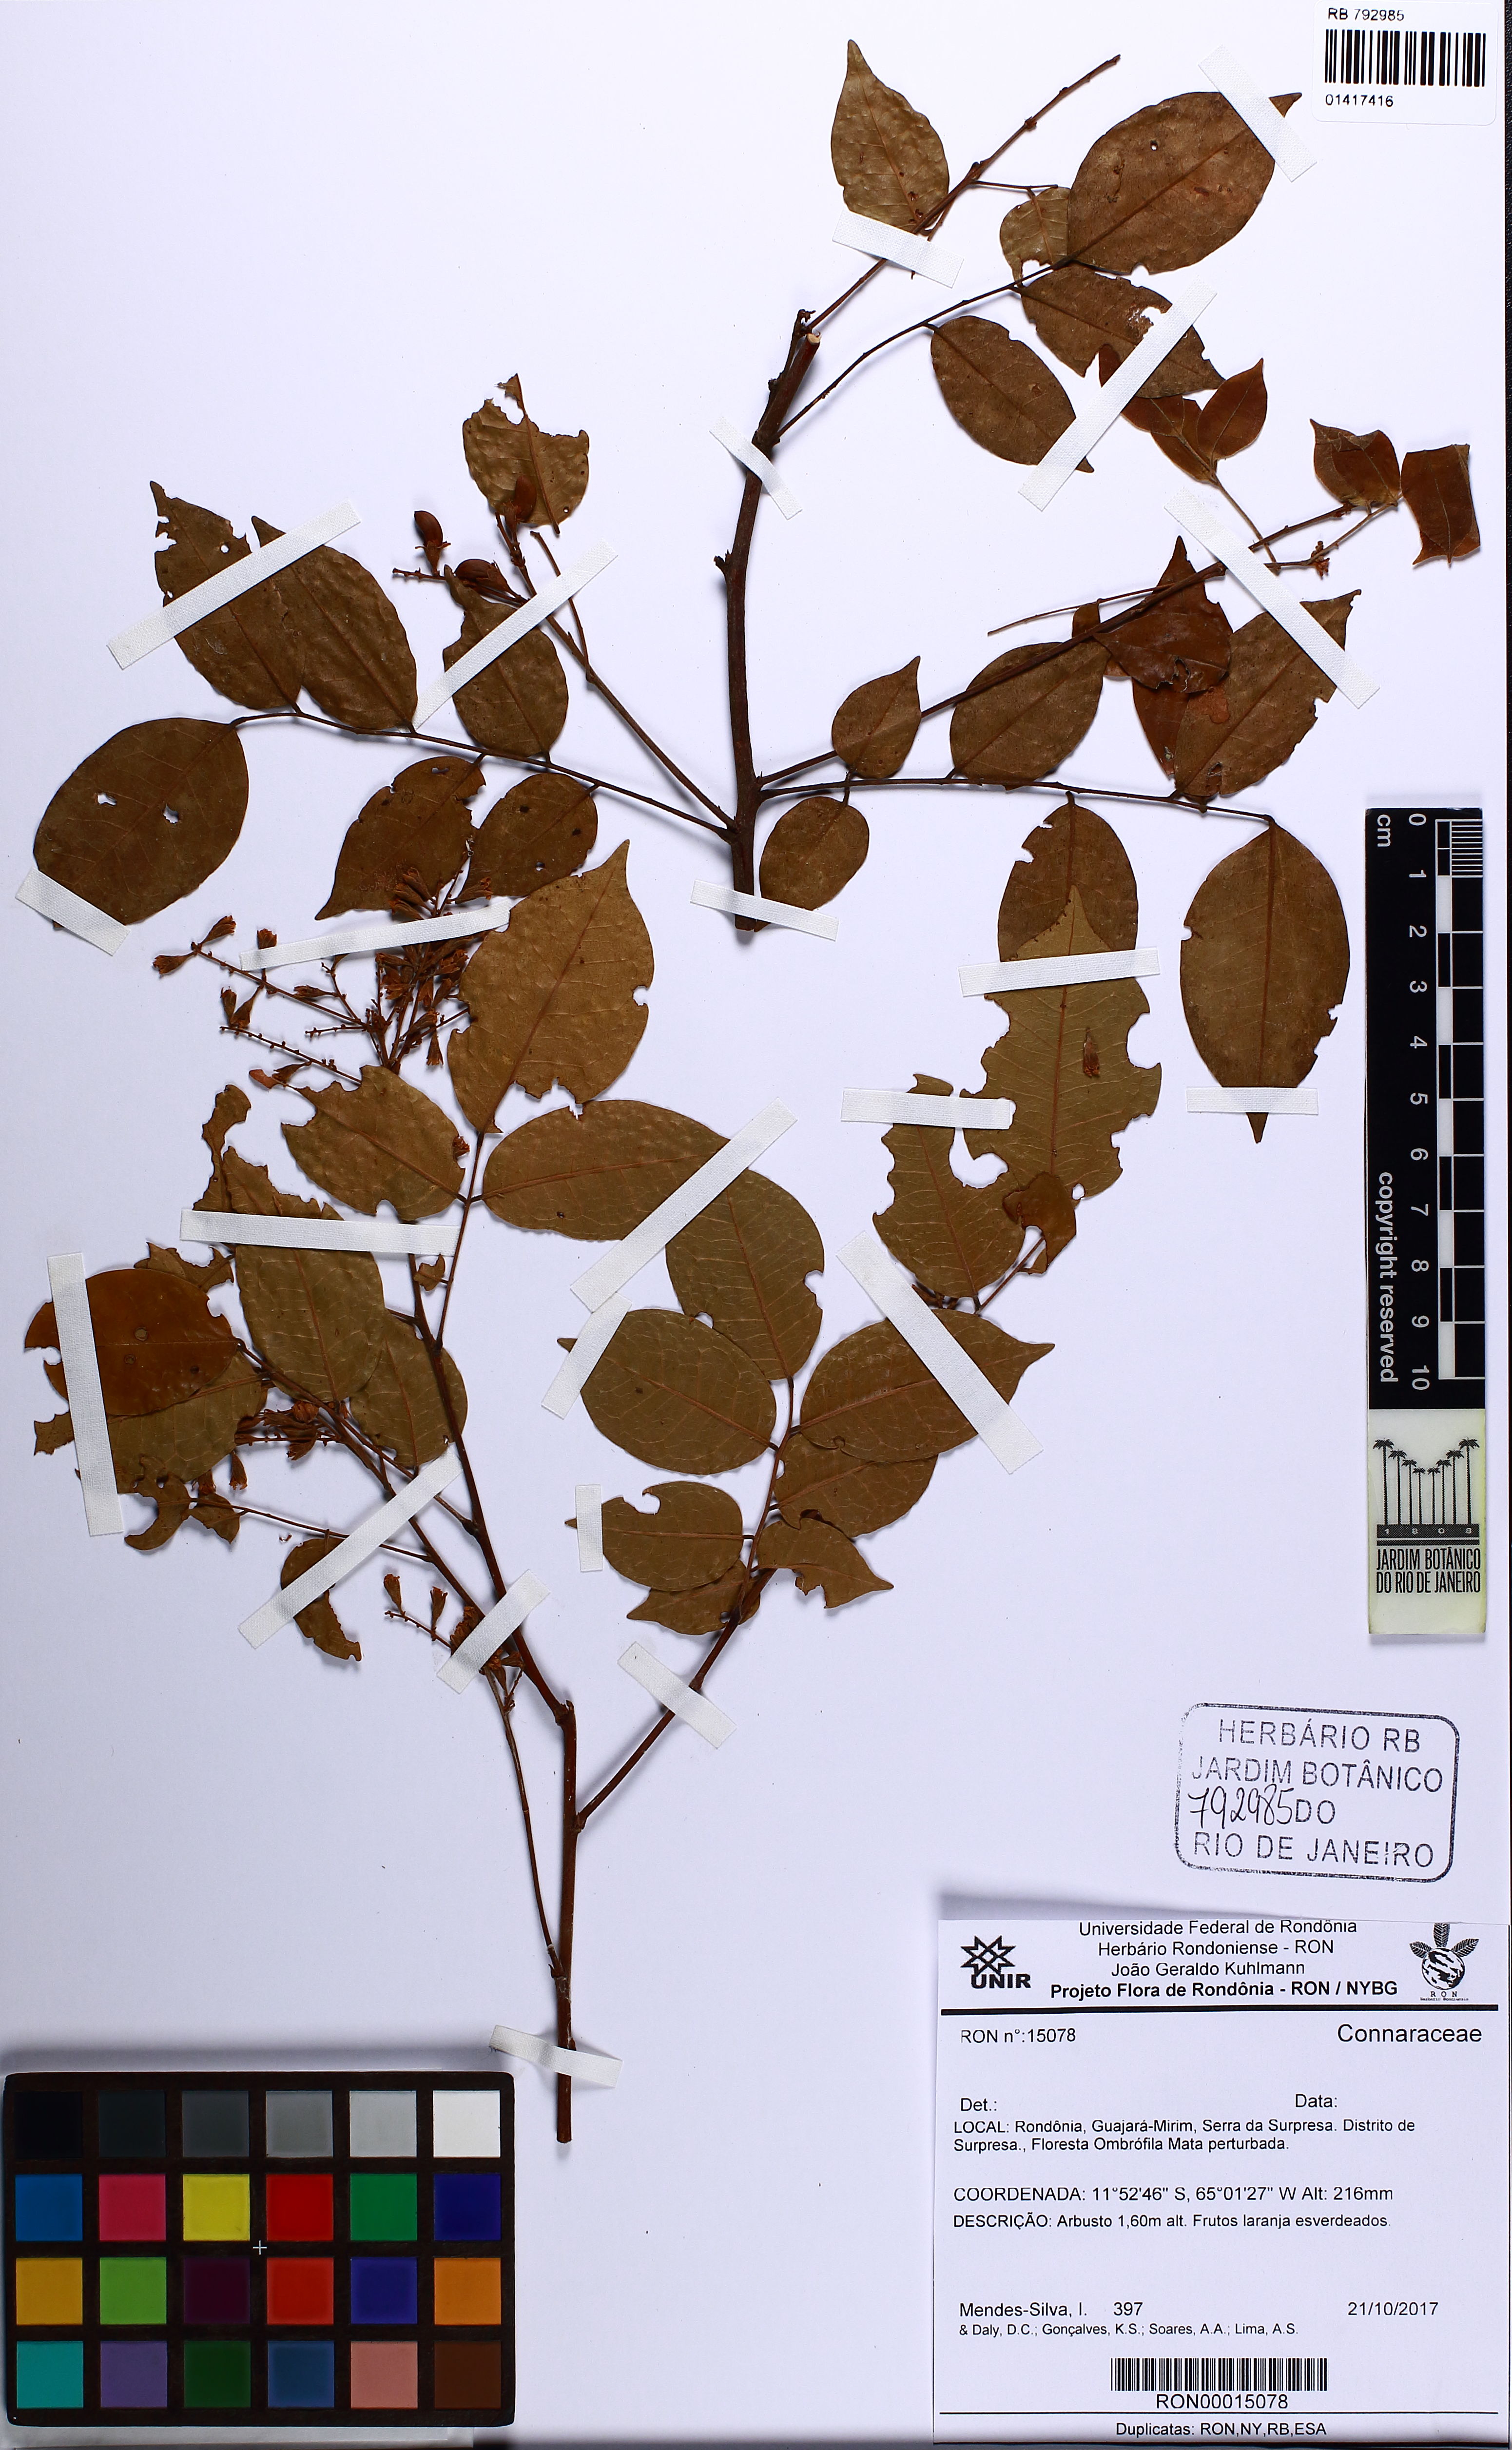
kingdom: Plantae
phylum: Tracheophyta
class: Magnoliopsida
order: Oxalidales
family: Connaraceae
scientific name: Connaraceae
